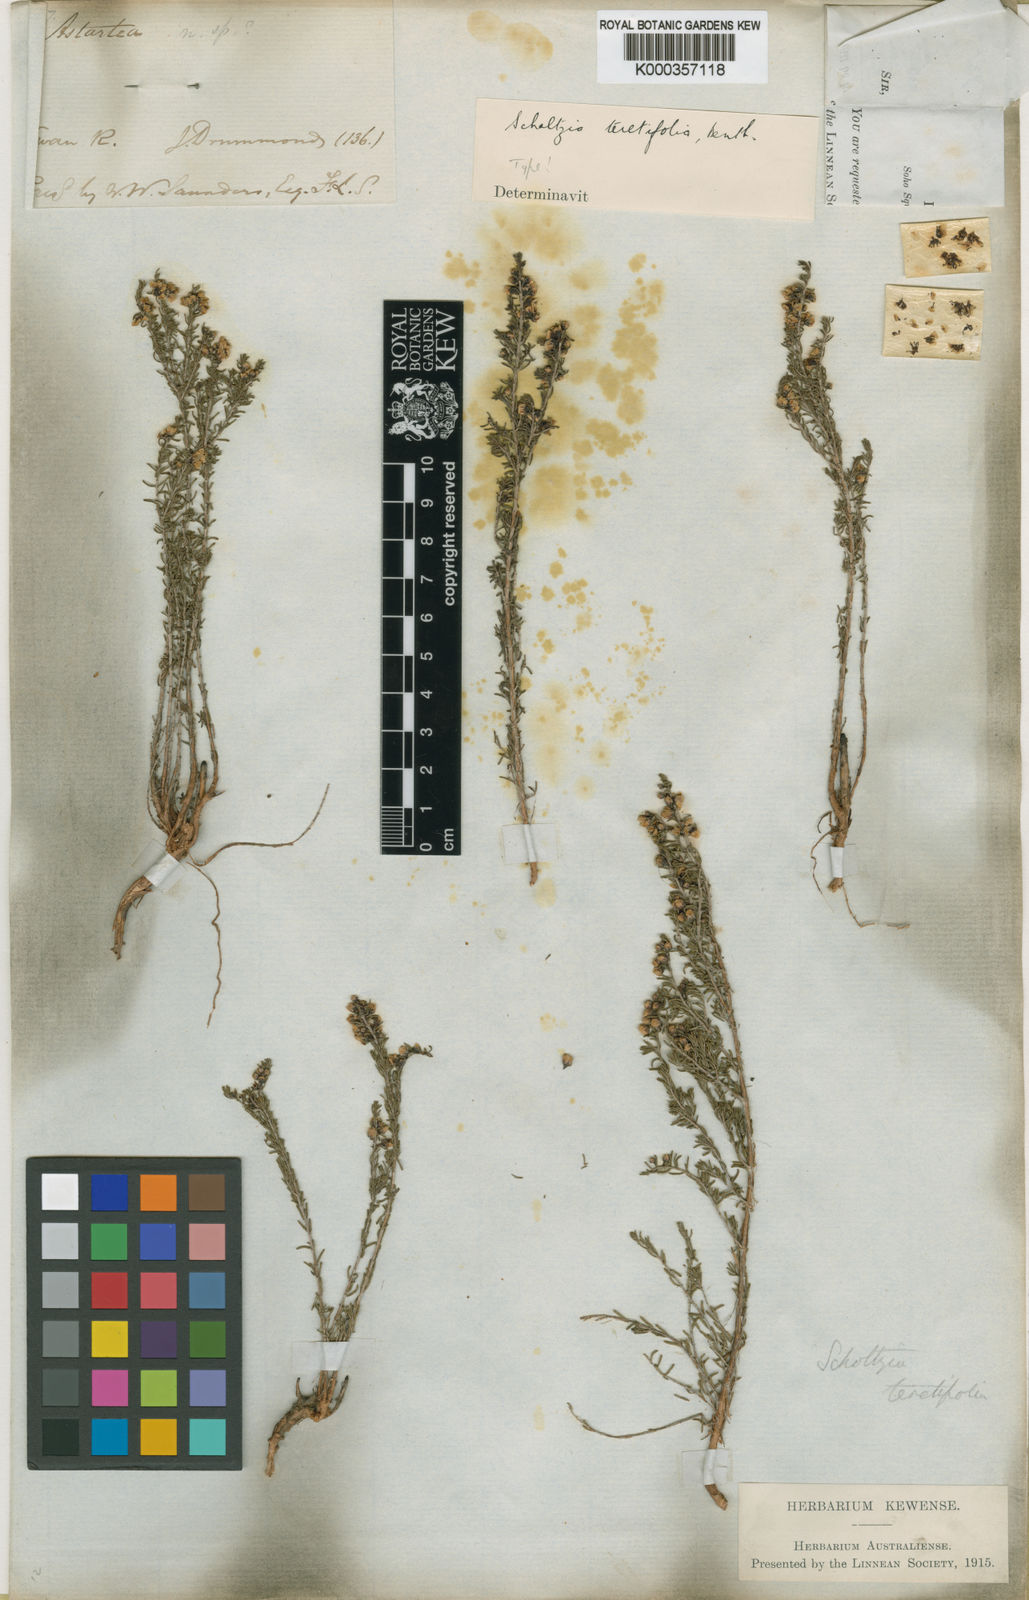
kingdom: Plantae
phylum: Tracheophyta
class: Magnoliopsida
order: Myrtales
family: Myrtaceae
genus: Scholtzia
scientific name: Scholtzia teretifolia
